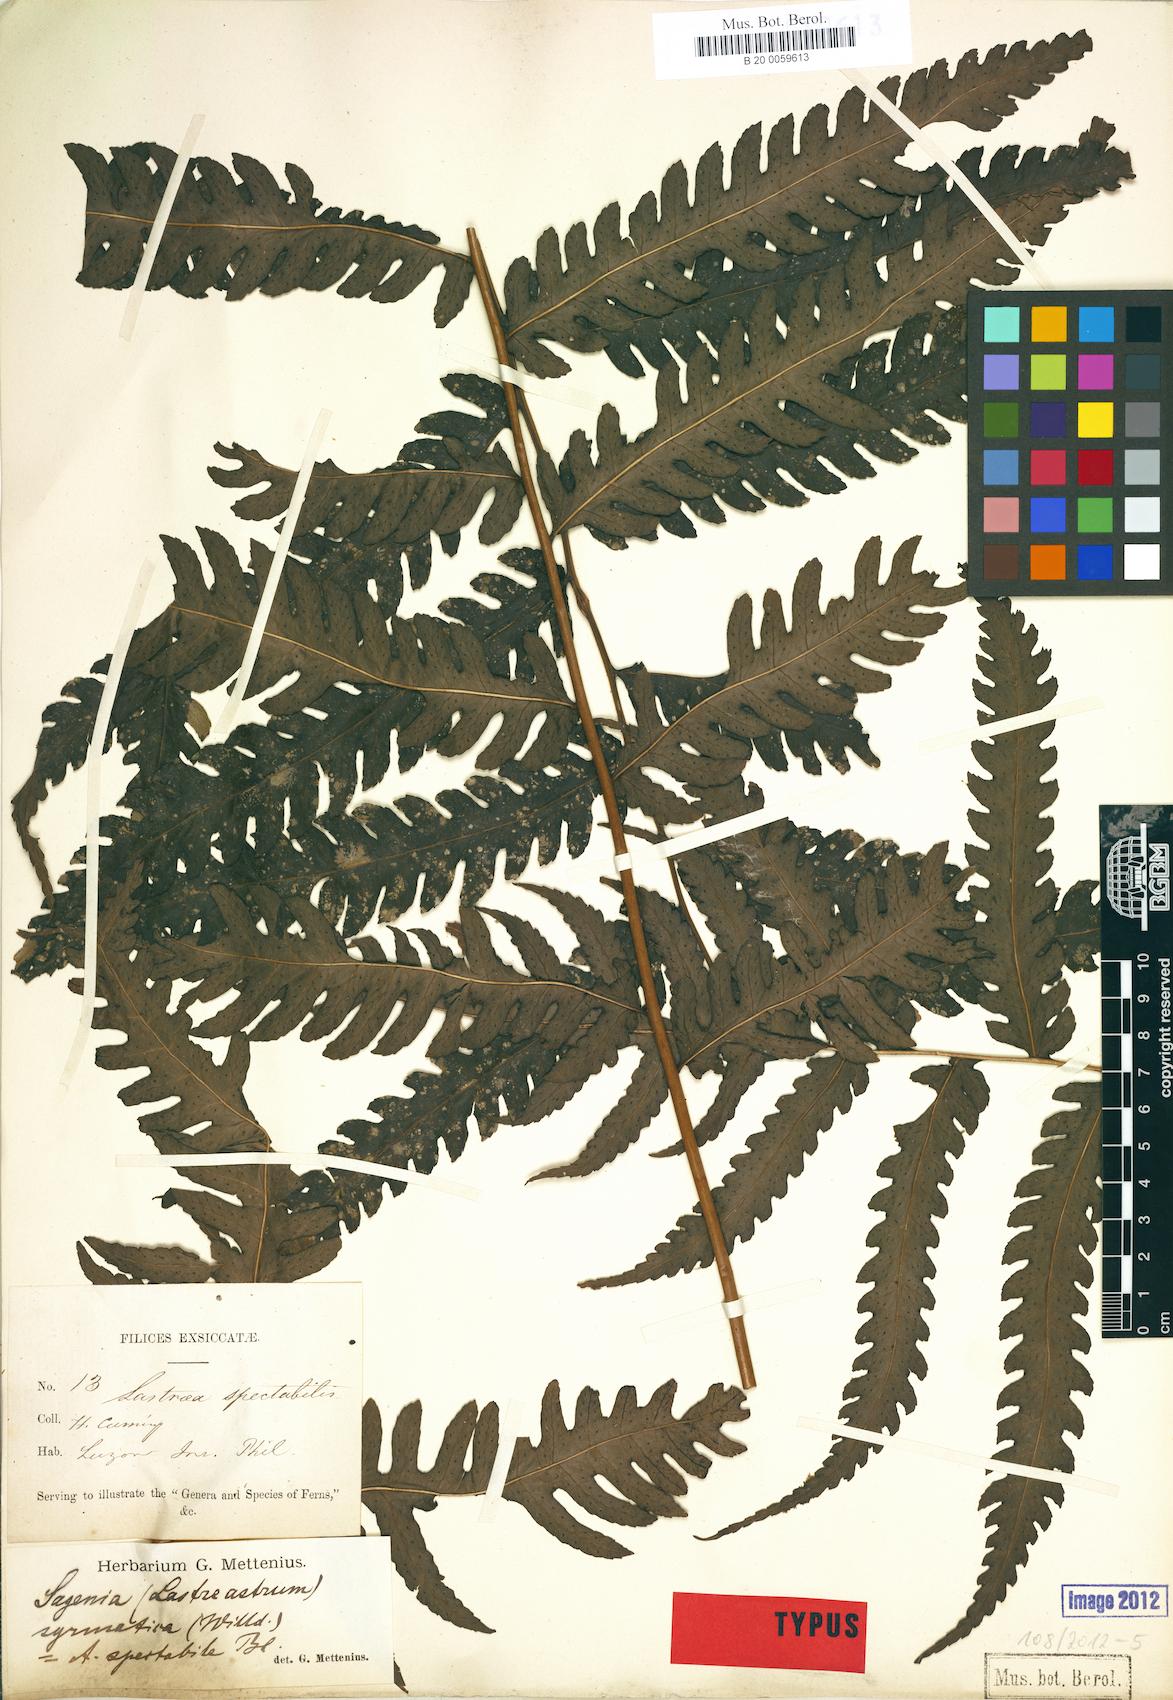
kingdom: Plantae
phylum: Tracheophyta
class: Polypodiopsida
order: Polypodiales
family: Dryopteridaceae
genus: Polystichum
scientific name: Polystichum multifidum
